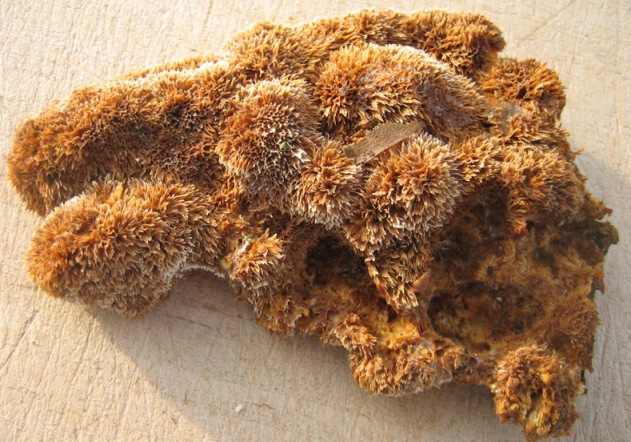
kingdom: Fungi
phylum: Basidiomycota
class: Agaricomycetes
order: Hymenochaetales
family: Hymenochaetaceae
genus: Mensularia
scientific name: Mensularia nodulosa
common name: bøge-spejlporesvamp
